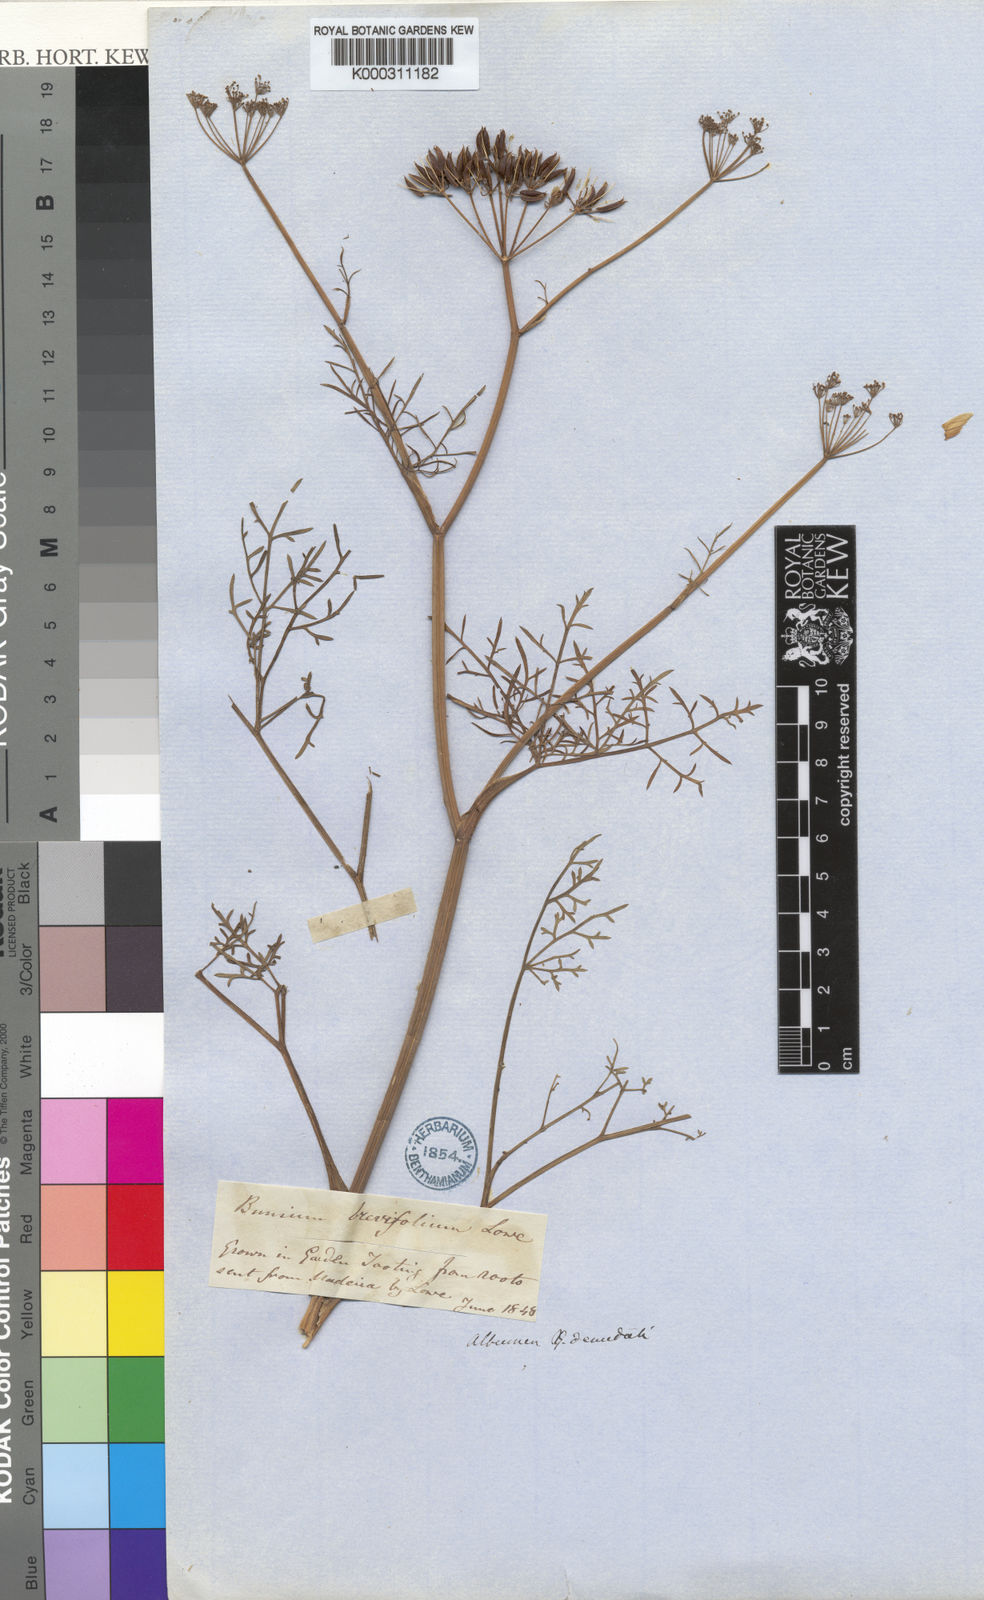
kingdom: Plantae
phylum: Tracheophyta
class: Magnoliopsida
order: Apiales
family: Apiaceae
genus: Pimpinella
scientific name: Pimpinella
